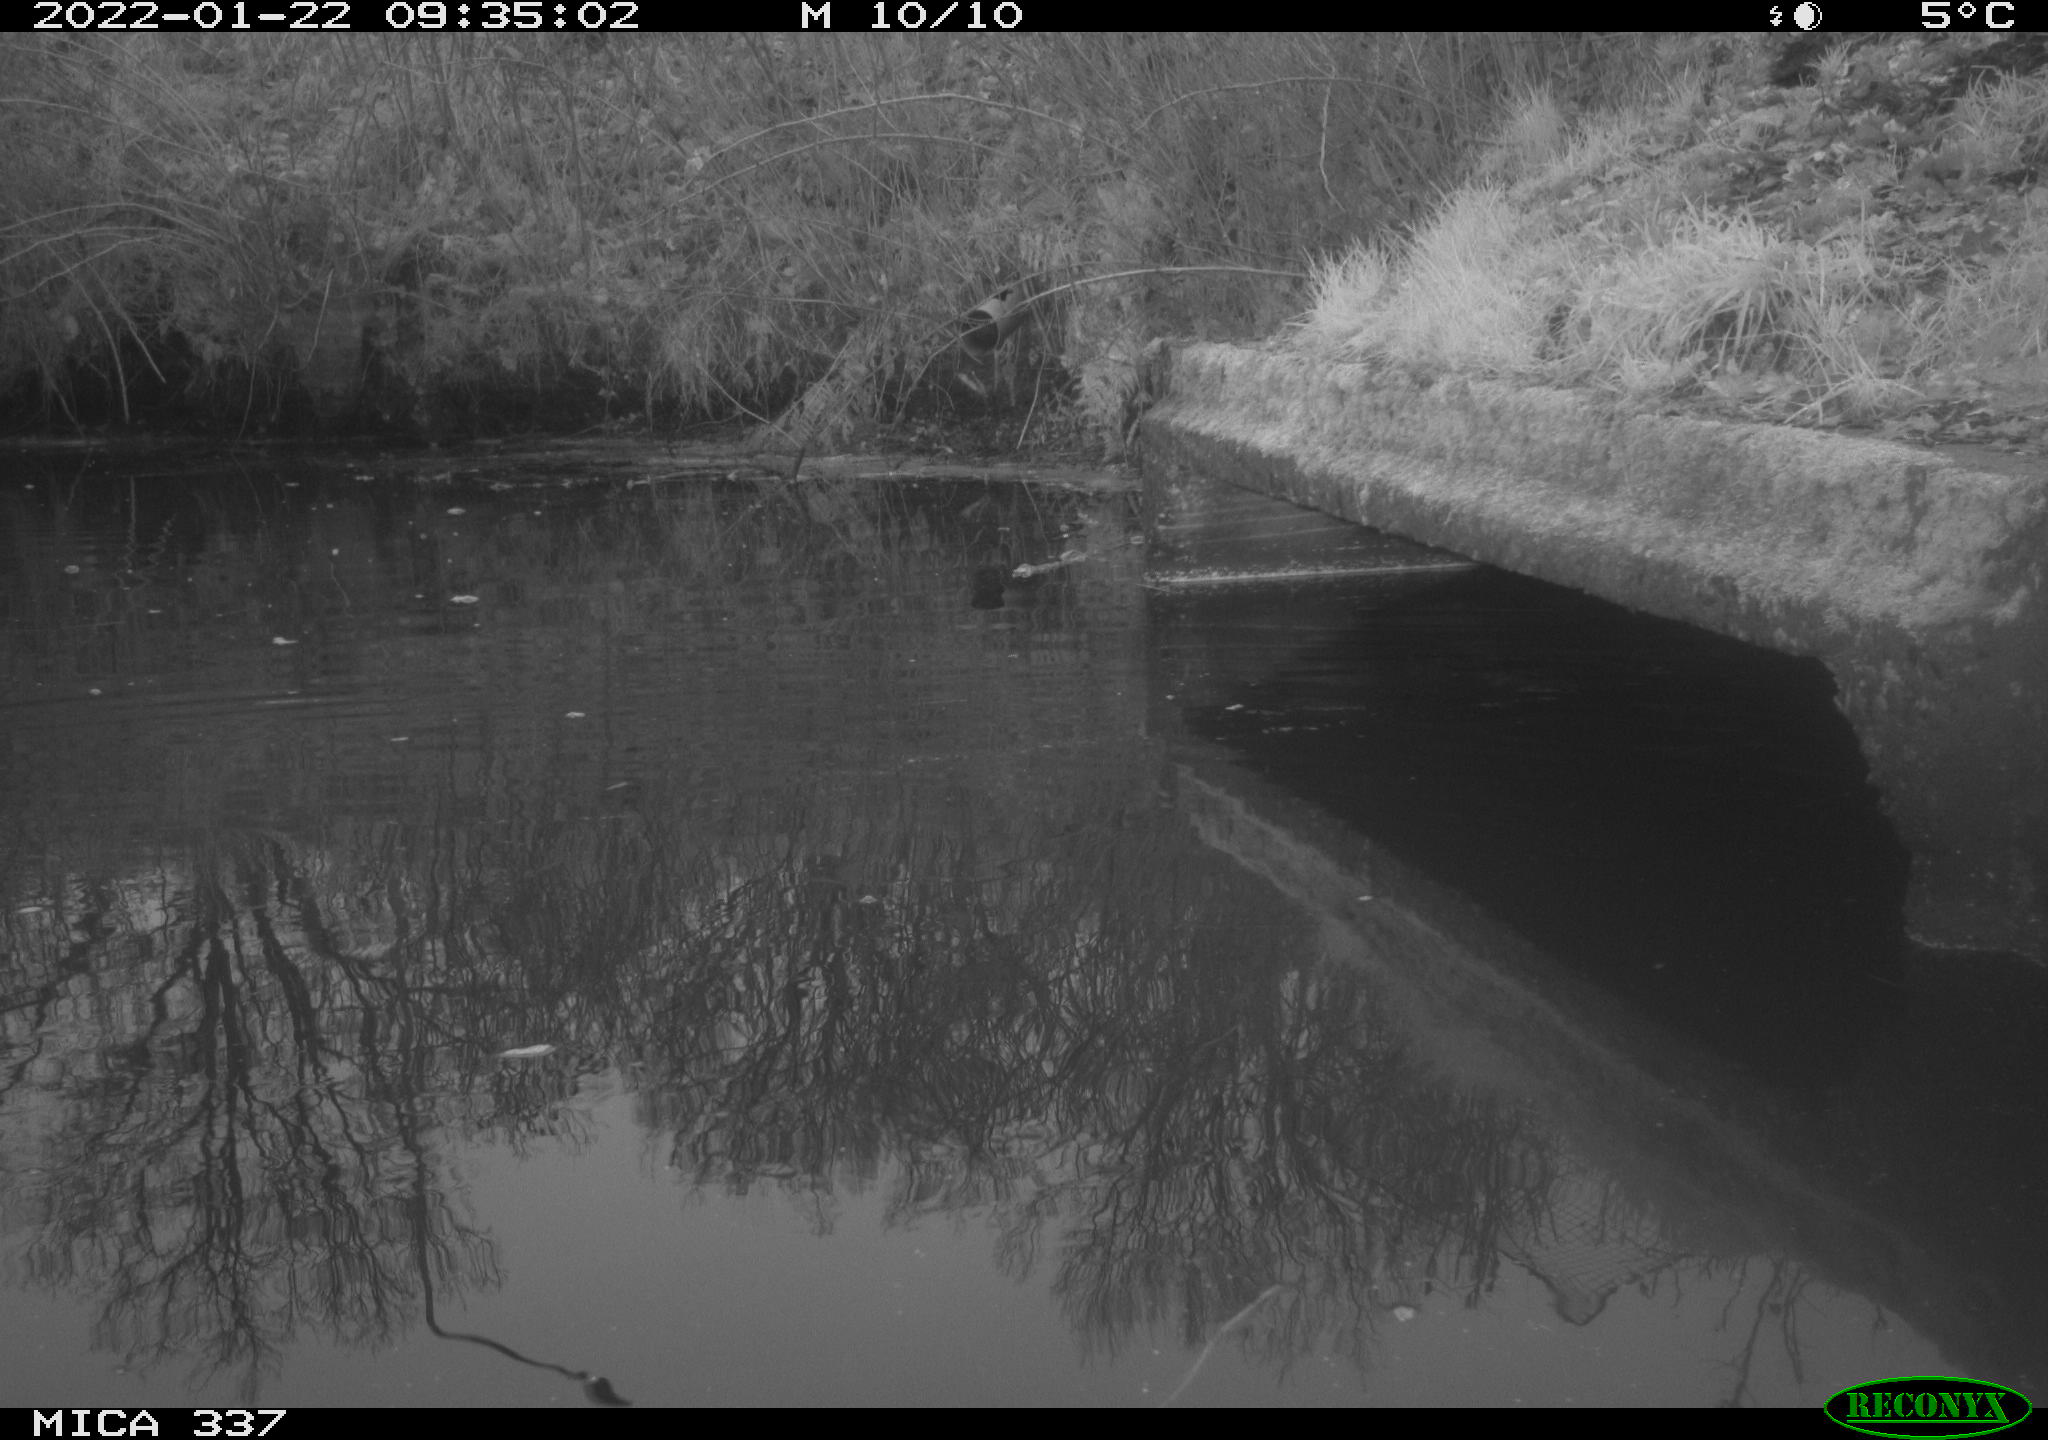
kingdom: Animalia
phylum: Chordata
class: Aves
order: Anseriformes
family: Anatidae
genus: Anas
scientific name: Anas platyrhynchos
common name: Mallard
